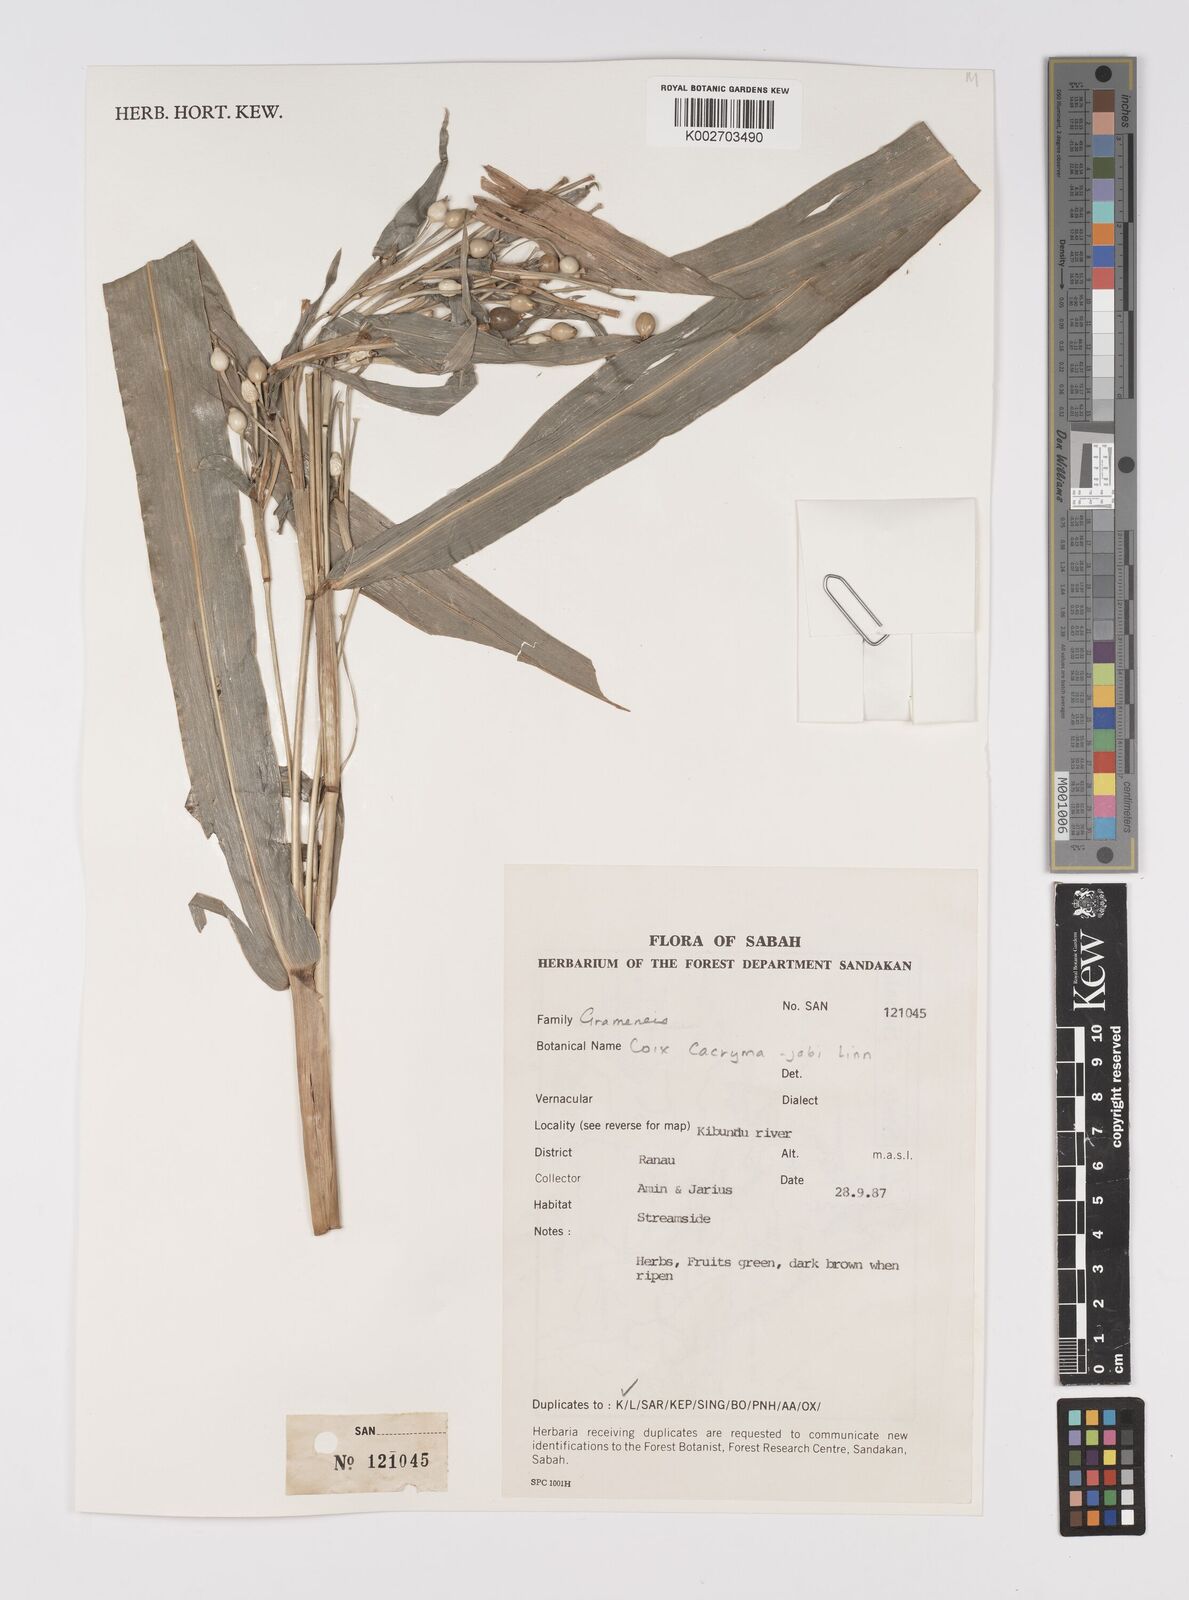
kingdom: Plantae
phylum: Tracheophyta
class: Liliopsida
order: Poales
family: Poaceae
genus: Coix
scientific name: Coix lacryma-jobi
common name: Job's tears
